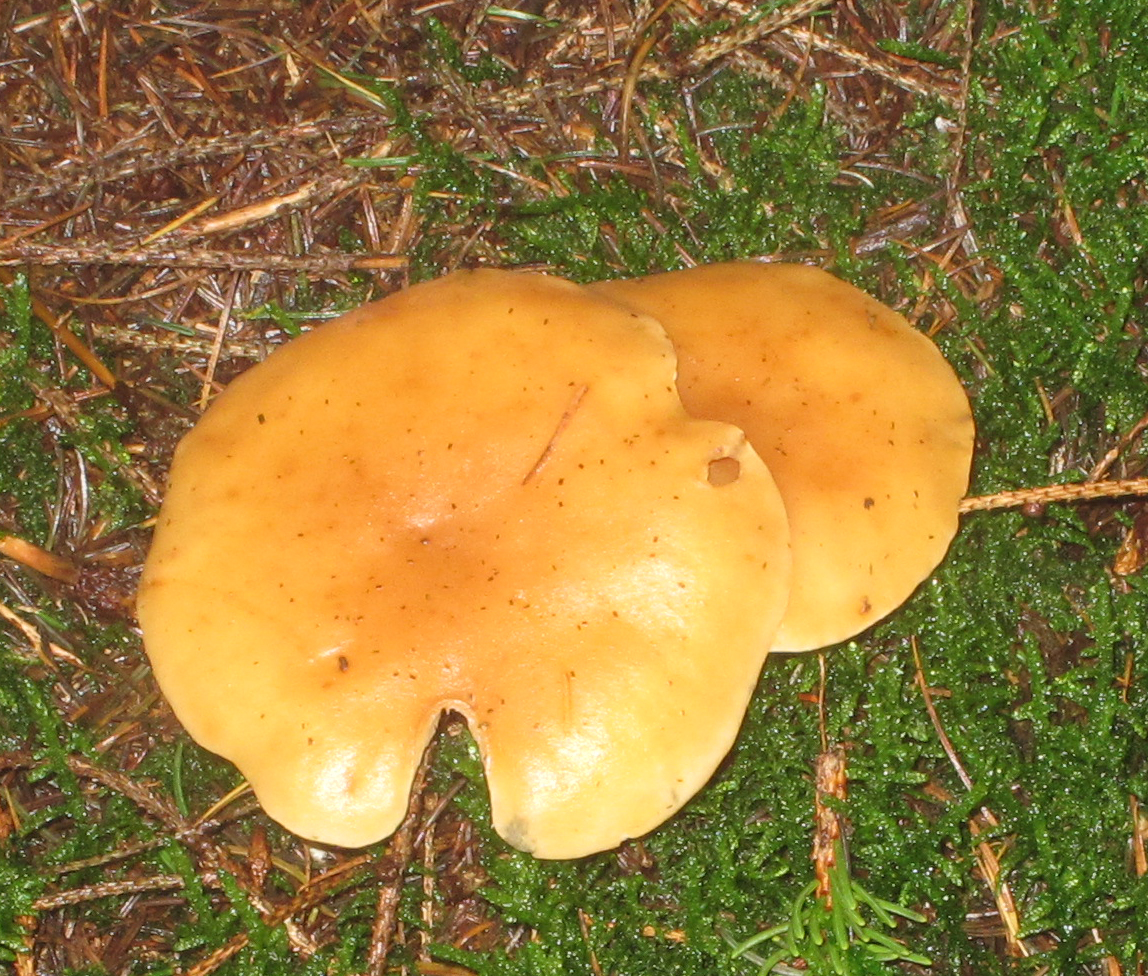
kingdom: Fungi
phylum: Basidiomycota
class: Agaricomycetes
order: Agaricales
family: Tricholomataceae
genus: Paralepista
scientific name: Paralepista flaccida
